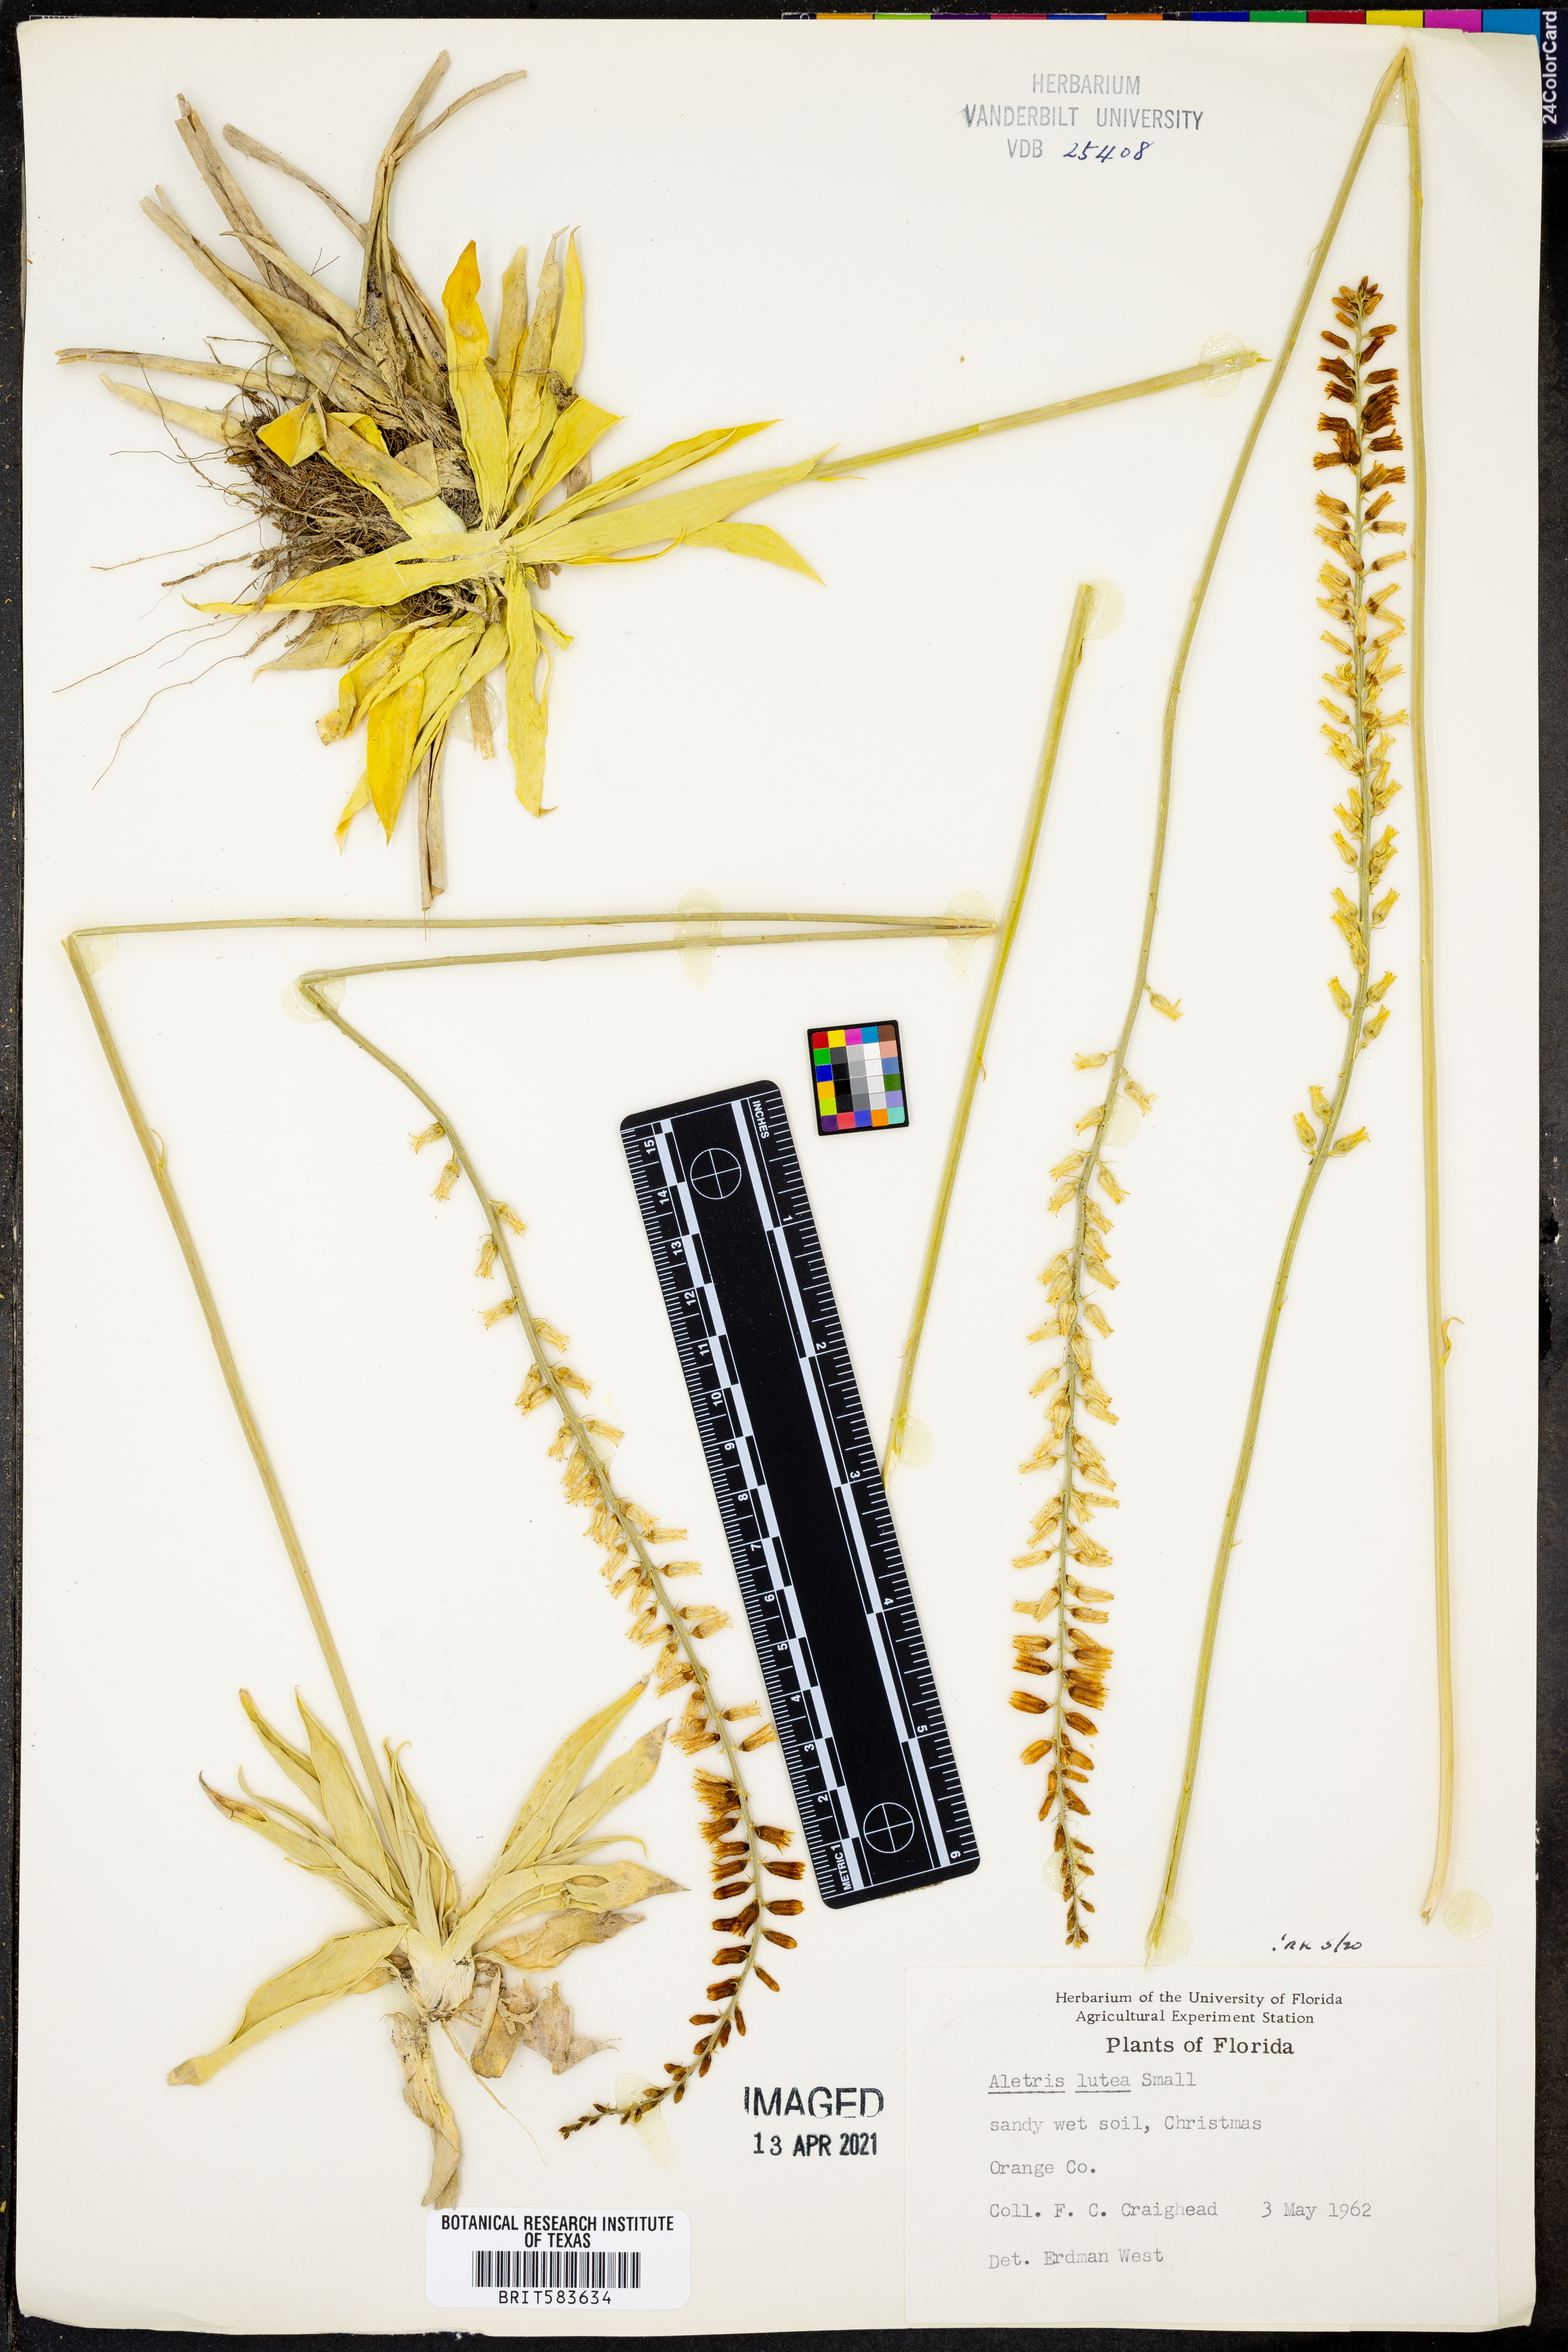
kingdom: Plantae
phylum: Tracheophyta
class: Liliopsida
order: Dioscoreales
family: Nartheciaceae
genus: Aletris
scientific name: Aletris lutea
